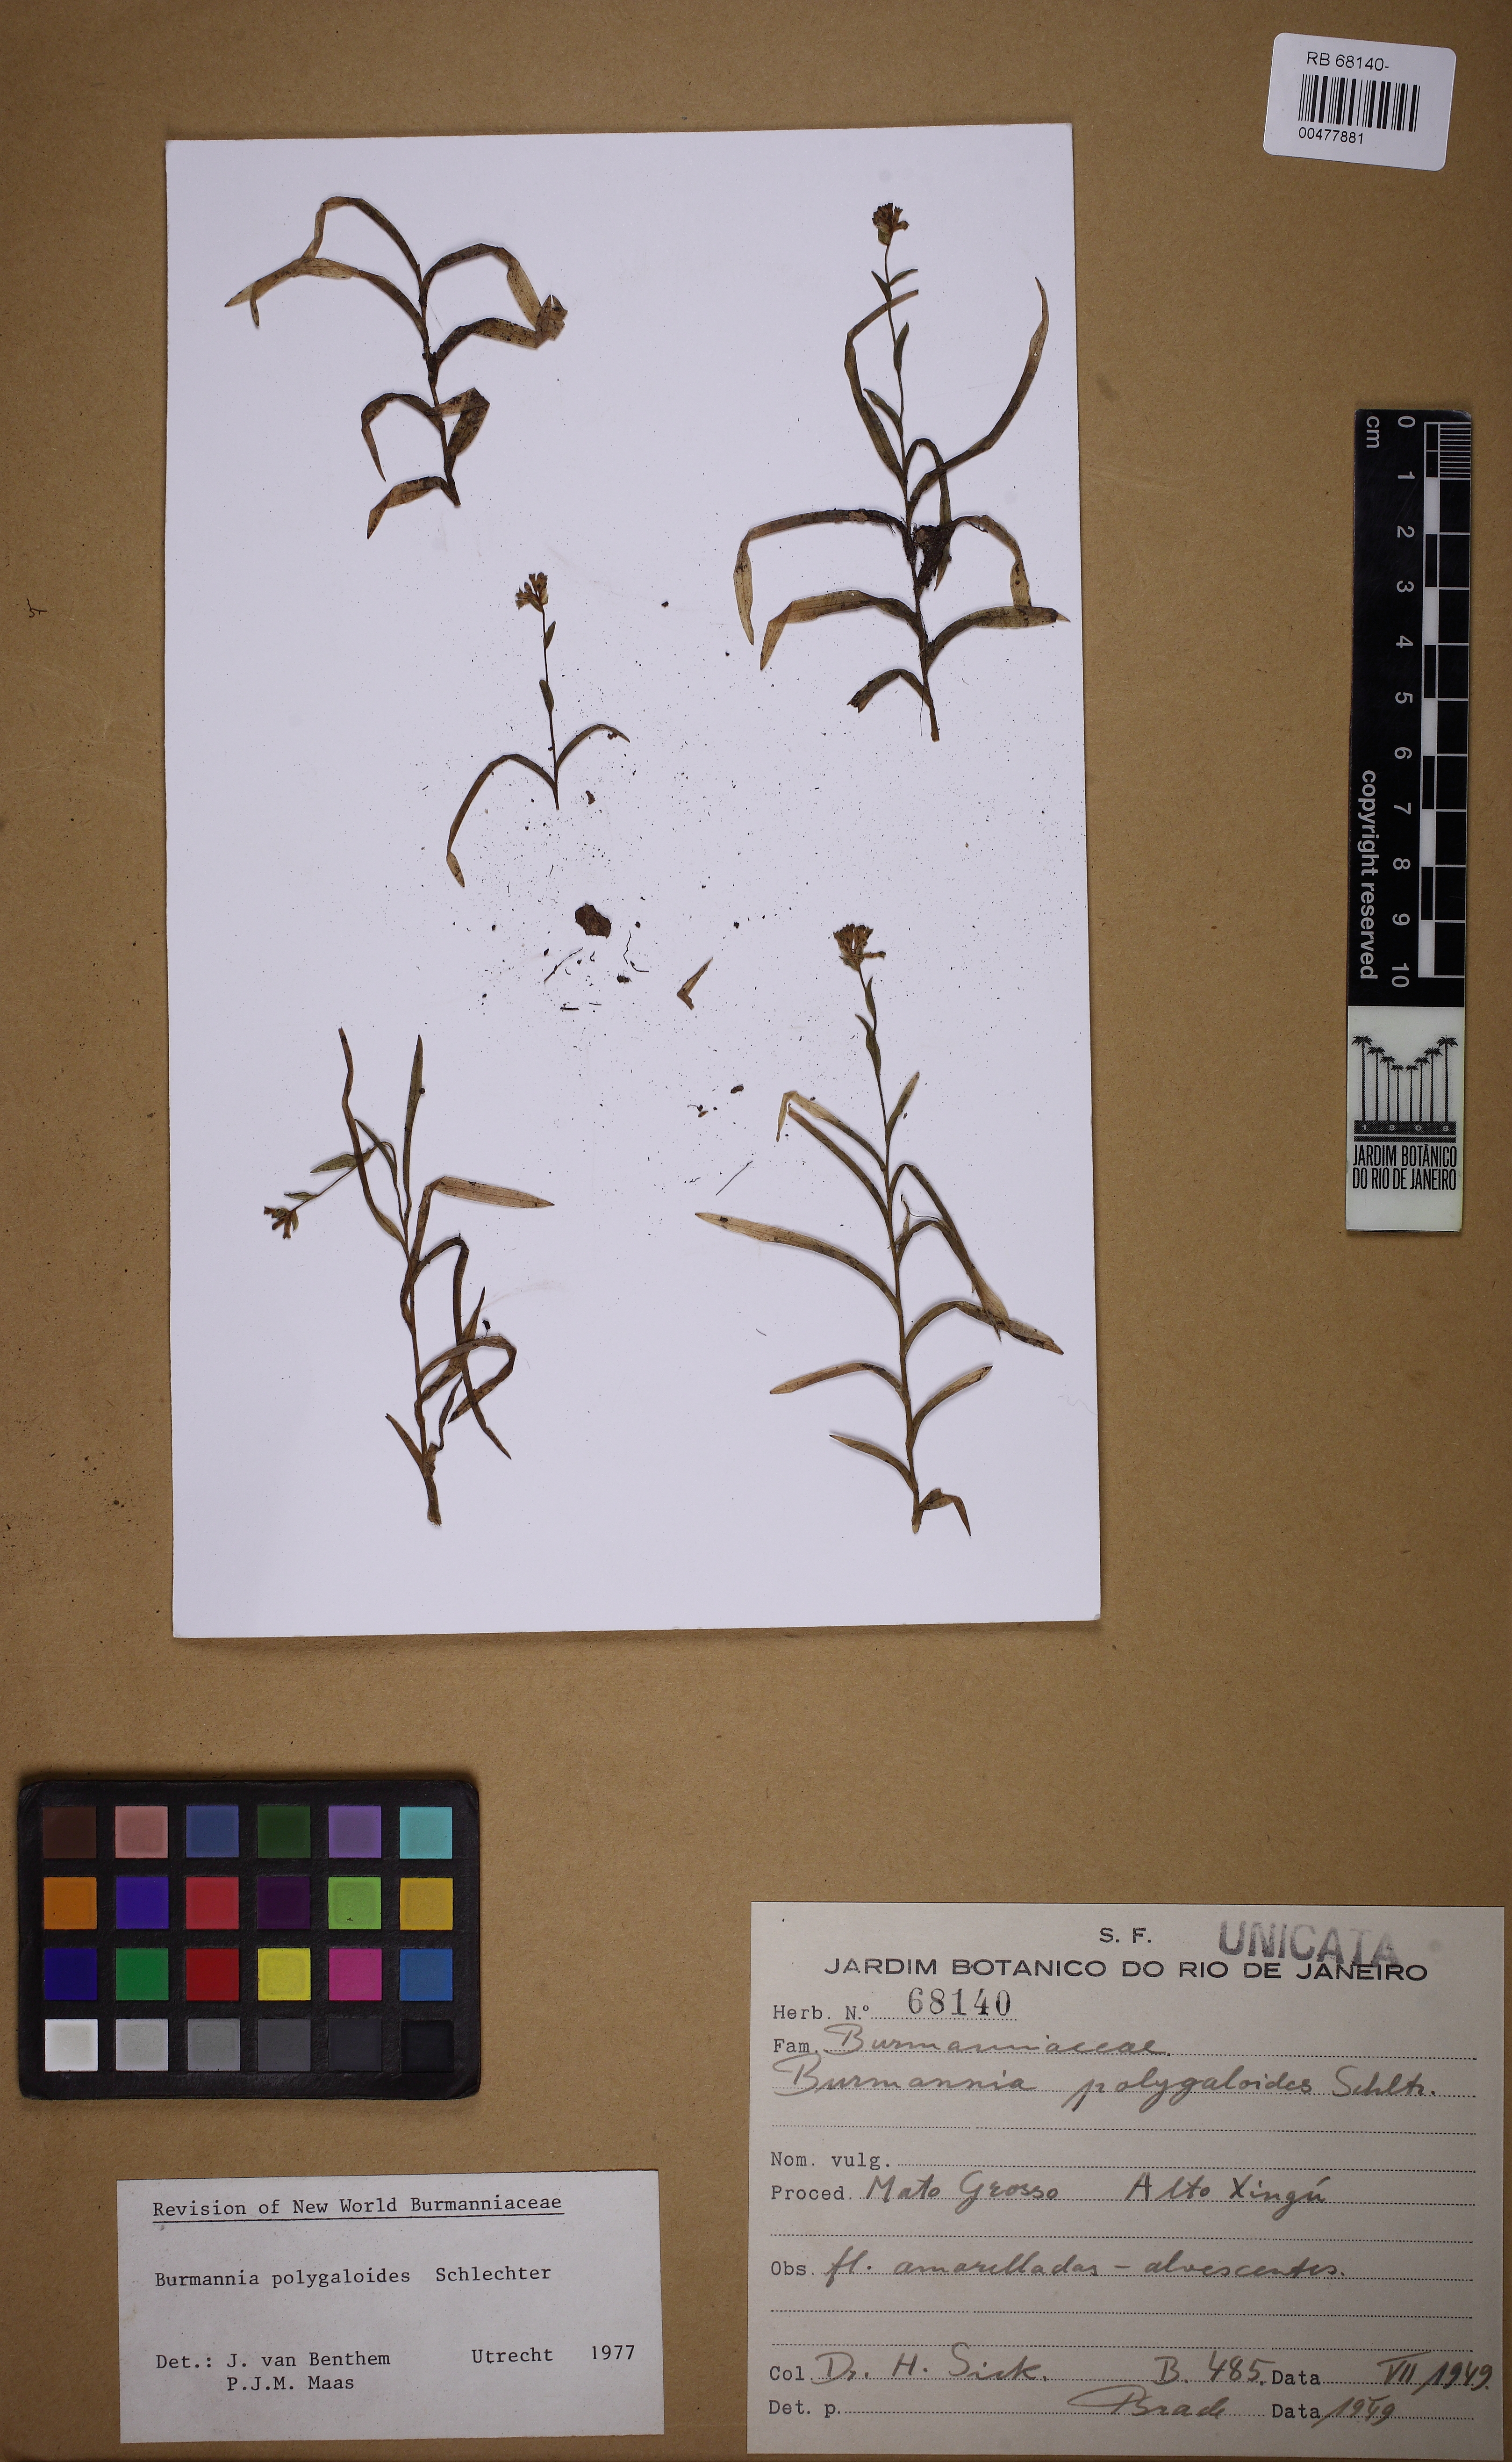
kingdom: Plantae
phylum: Tracheophyta
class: Liliopsida
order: Dioscoreales
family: Burmanniaceae
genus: Burmannia
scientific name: Burmannia polygaloides
